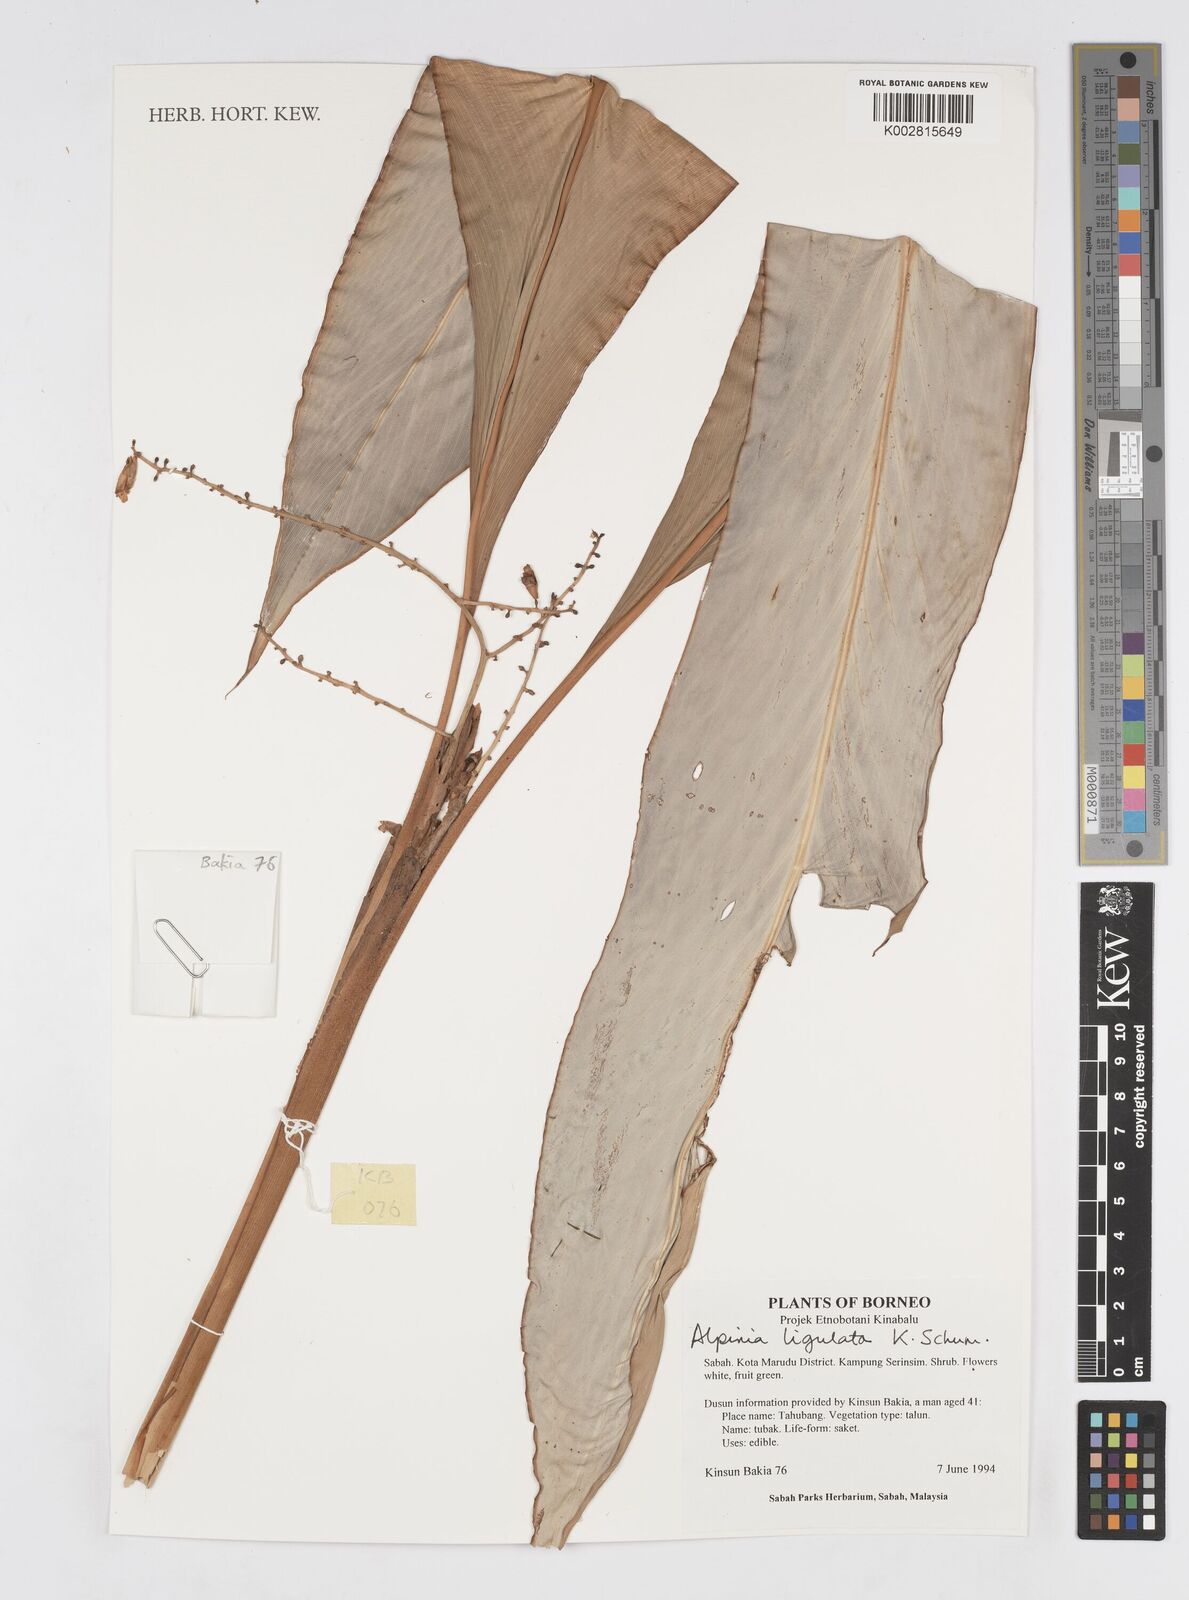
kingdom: Plantae
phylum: Tracheophyta
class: Liliopsida
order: Zingiberales
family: Zingiberaceae
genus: Alpinia
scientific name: Alpinia ligulata
